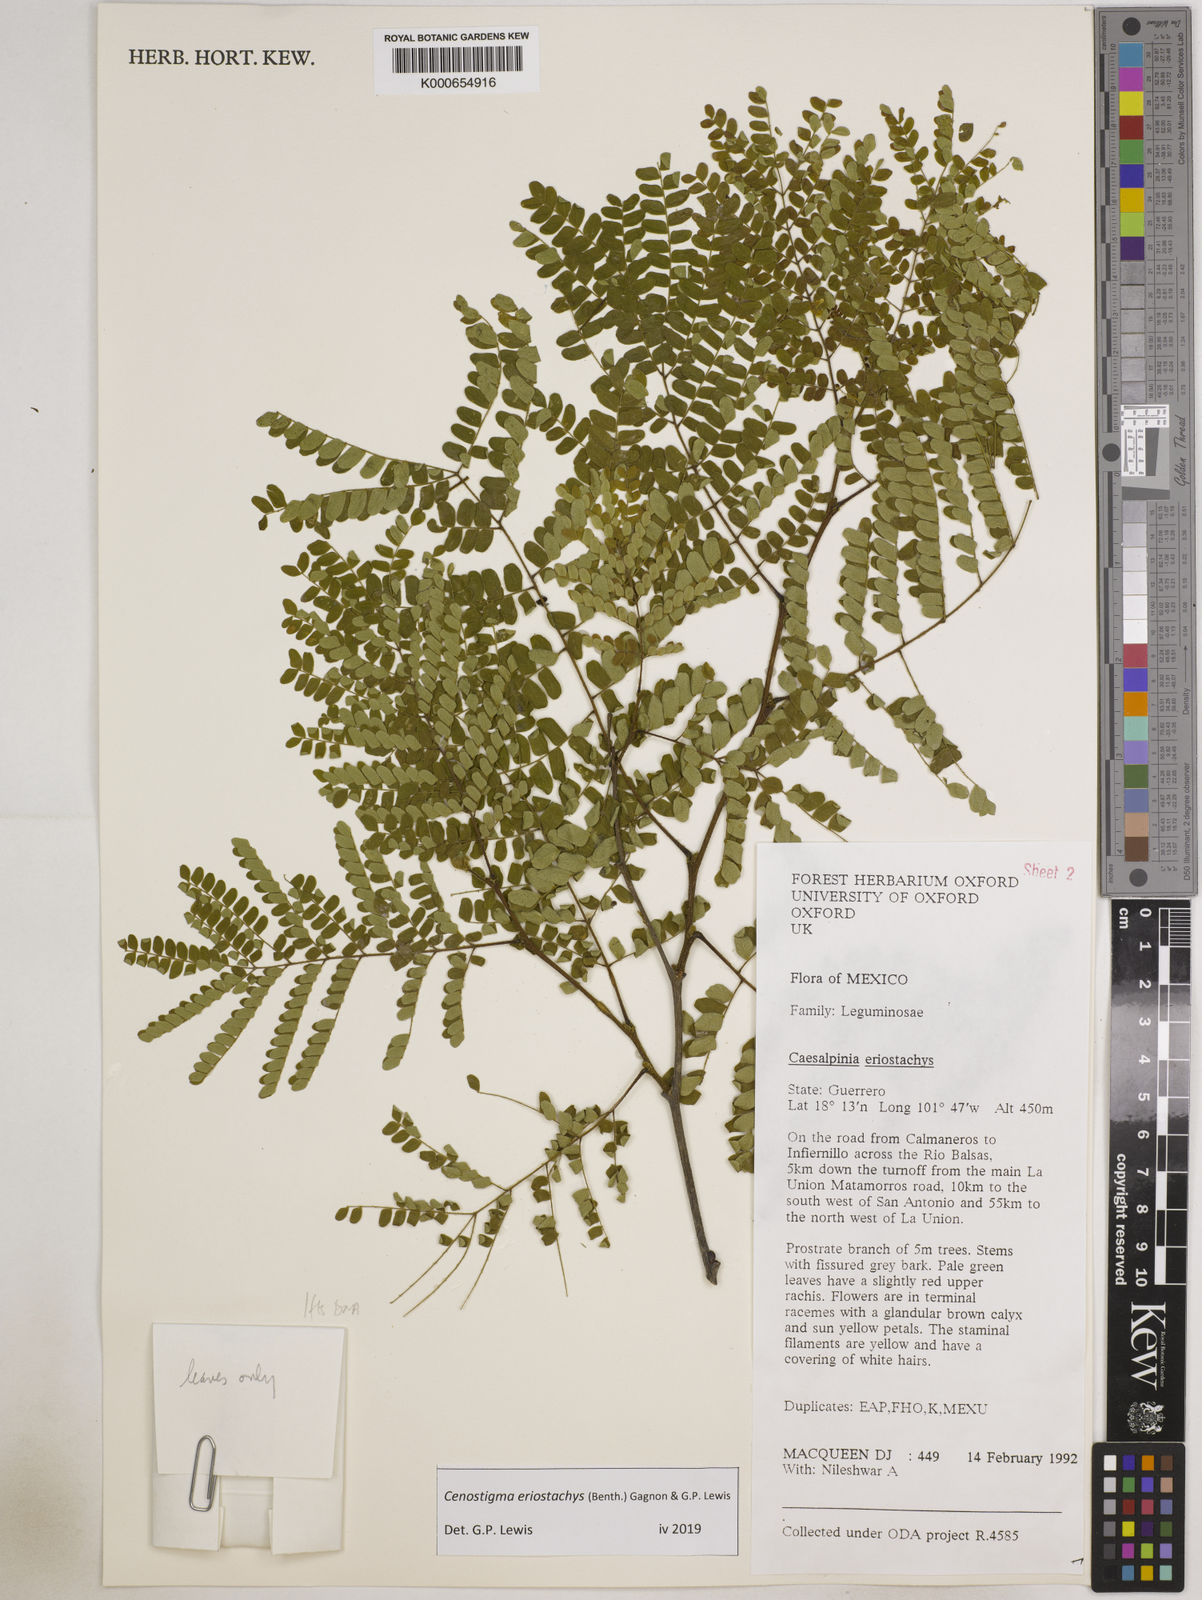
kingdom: Plantae
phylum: Tracheophyta
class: Magnoliopsida
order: Fabales
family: Fabaceae
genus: Cenostigma
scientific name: Cenostigma eriostachys
